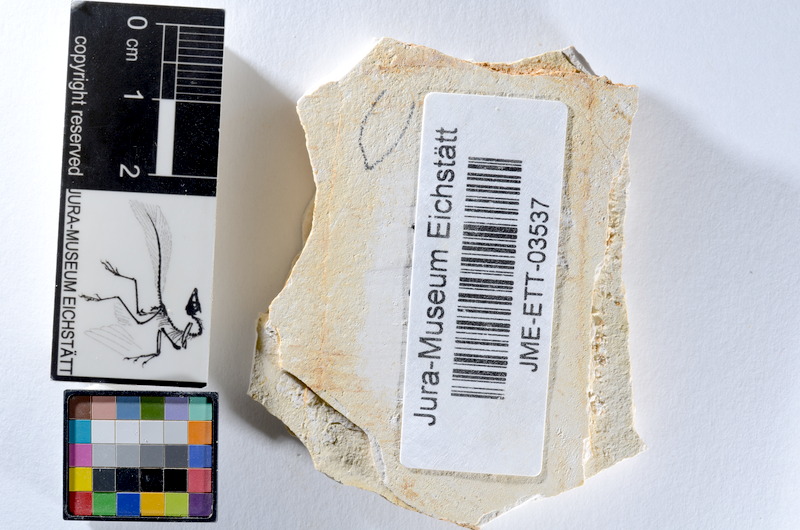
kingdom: Animalia
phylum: Chordata
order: Salmoniformes
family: Orthogonikleithridae
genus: Orthogonikleithrus
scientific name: Orthogonikleithrus hoelli
